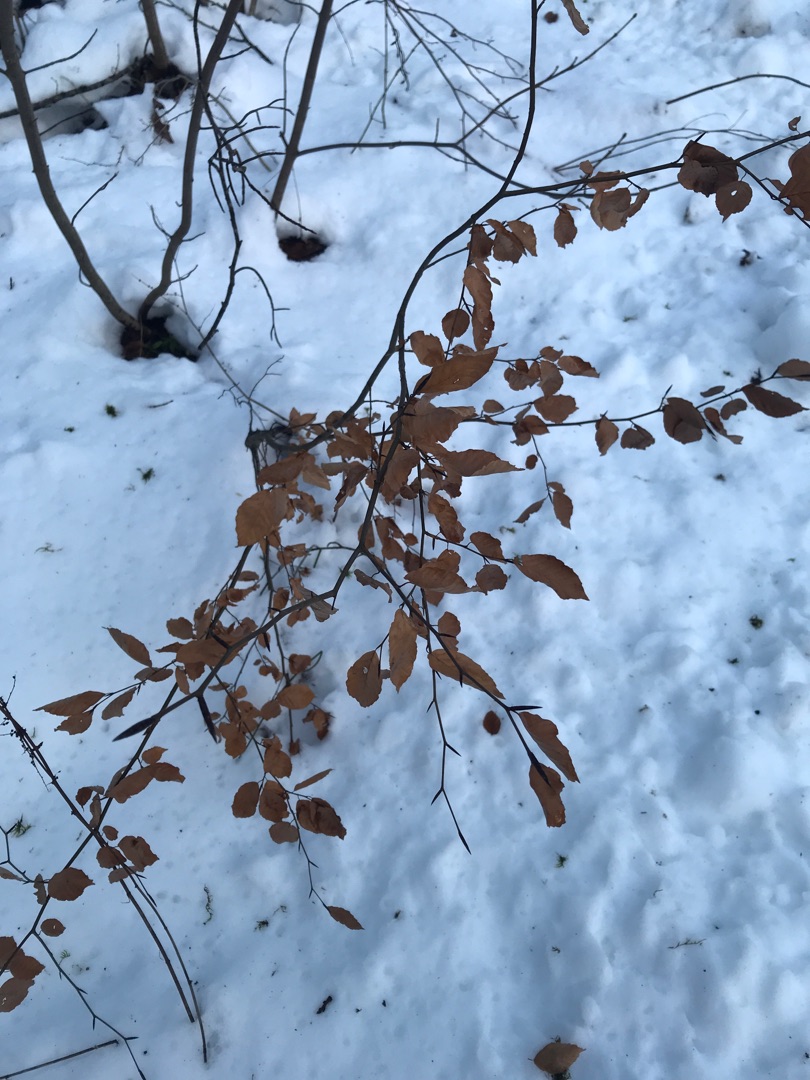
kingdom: Plantae
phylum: Tracheophyta
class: Magnoliopsida
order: Fagales
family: Fagaceae
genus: Fagus
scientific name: Fagus sylvatica
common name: Bøg
